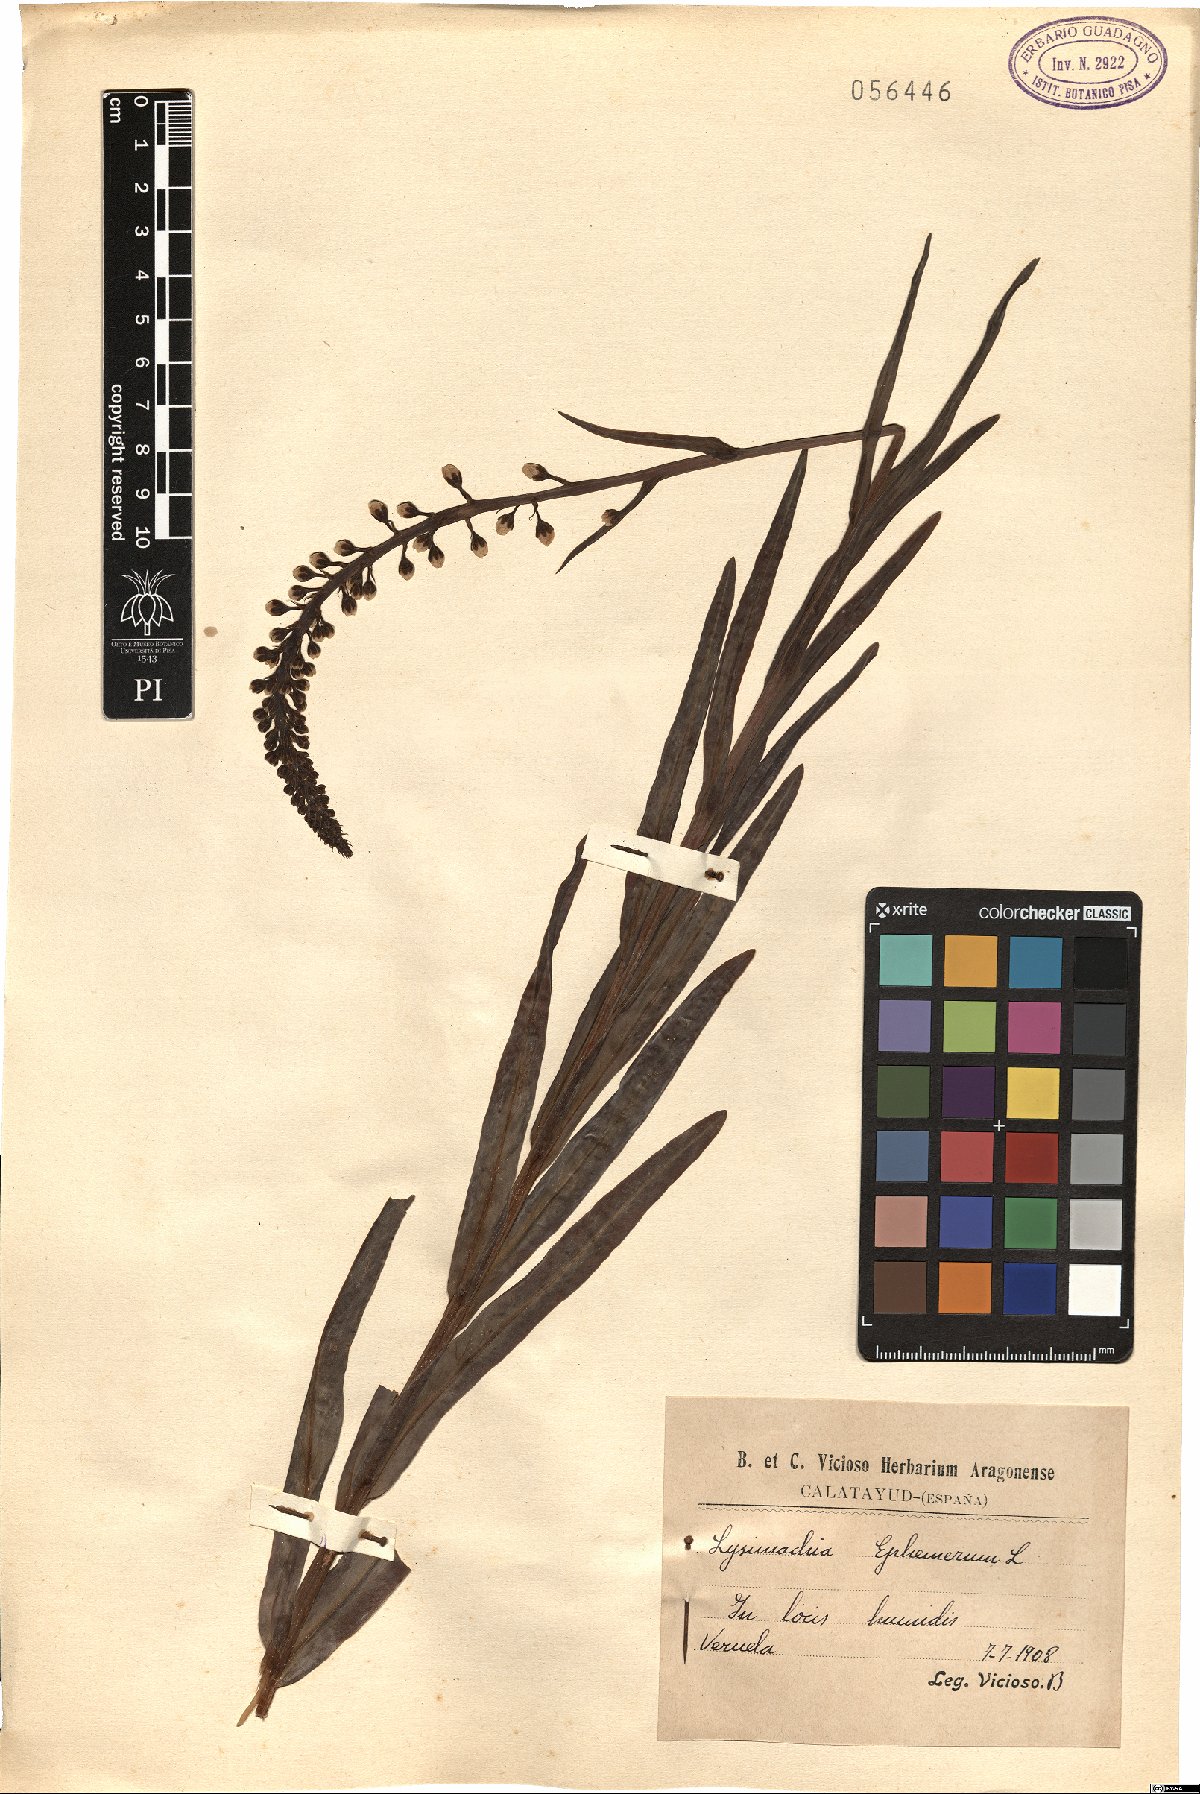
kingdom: Plantae
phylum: Tracheophyta
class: Magnoliopsida
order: Ericales
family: Primulaceae
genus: Lysimachia
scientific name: Lysimachia ephemerum
